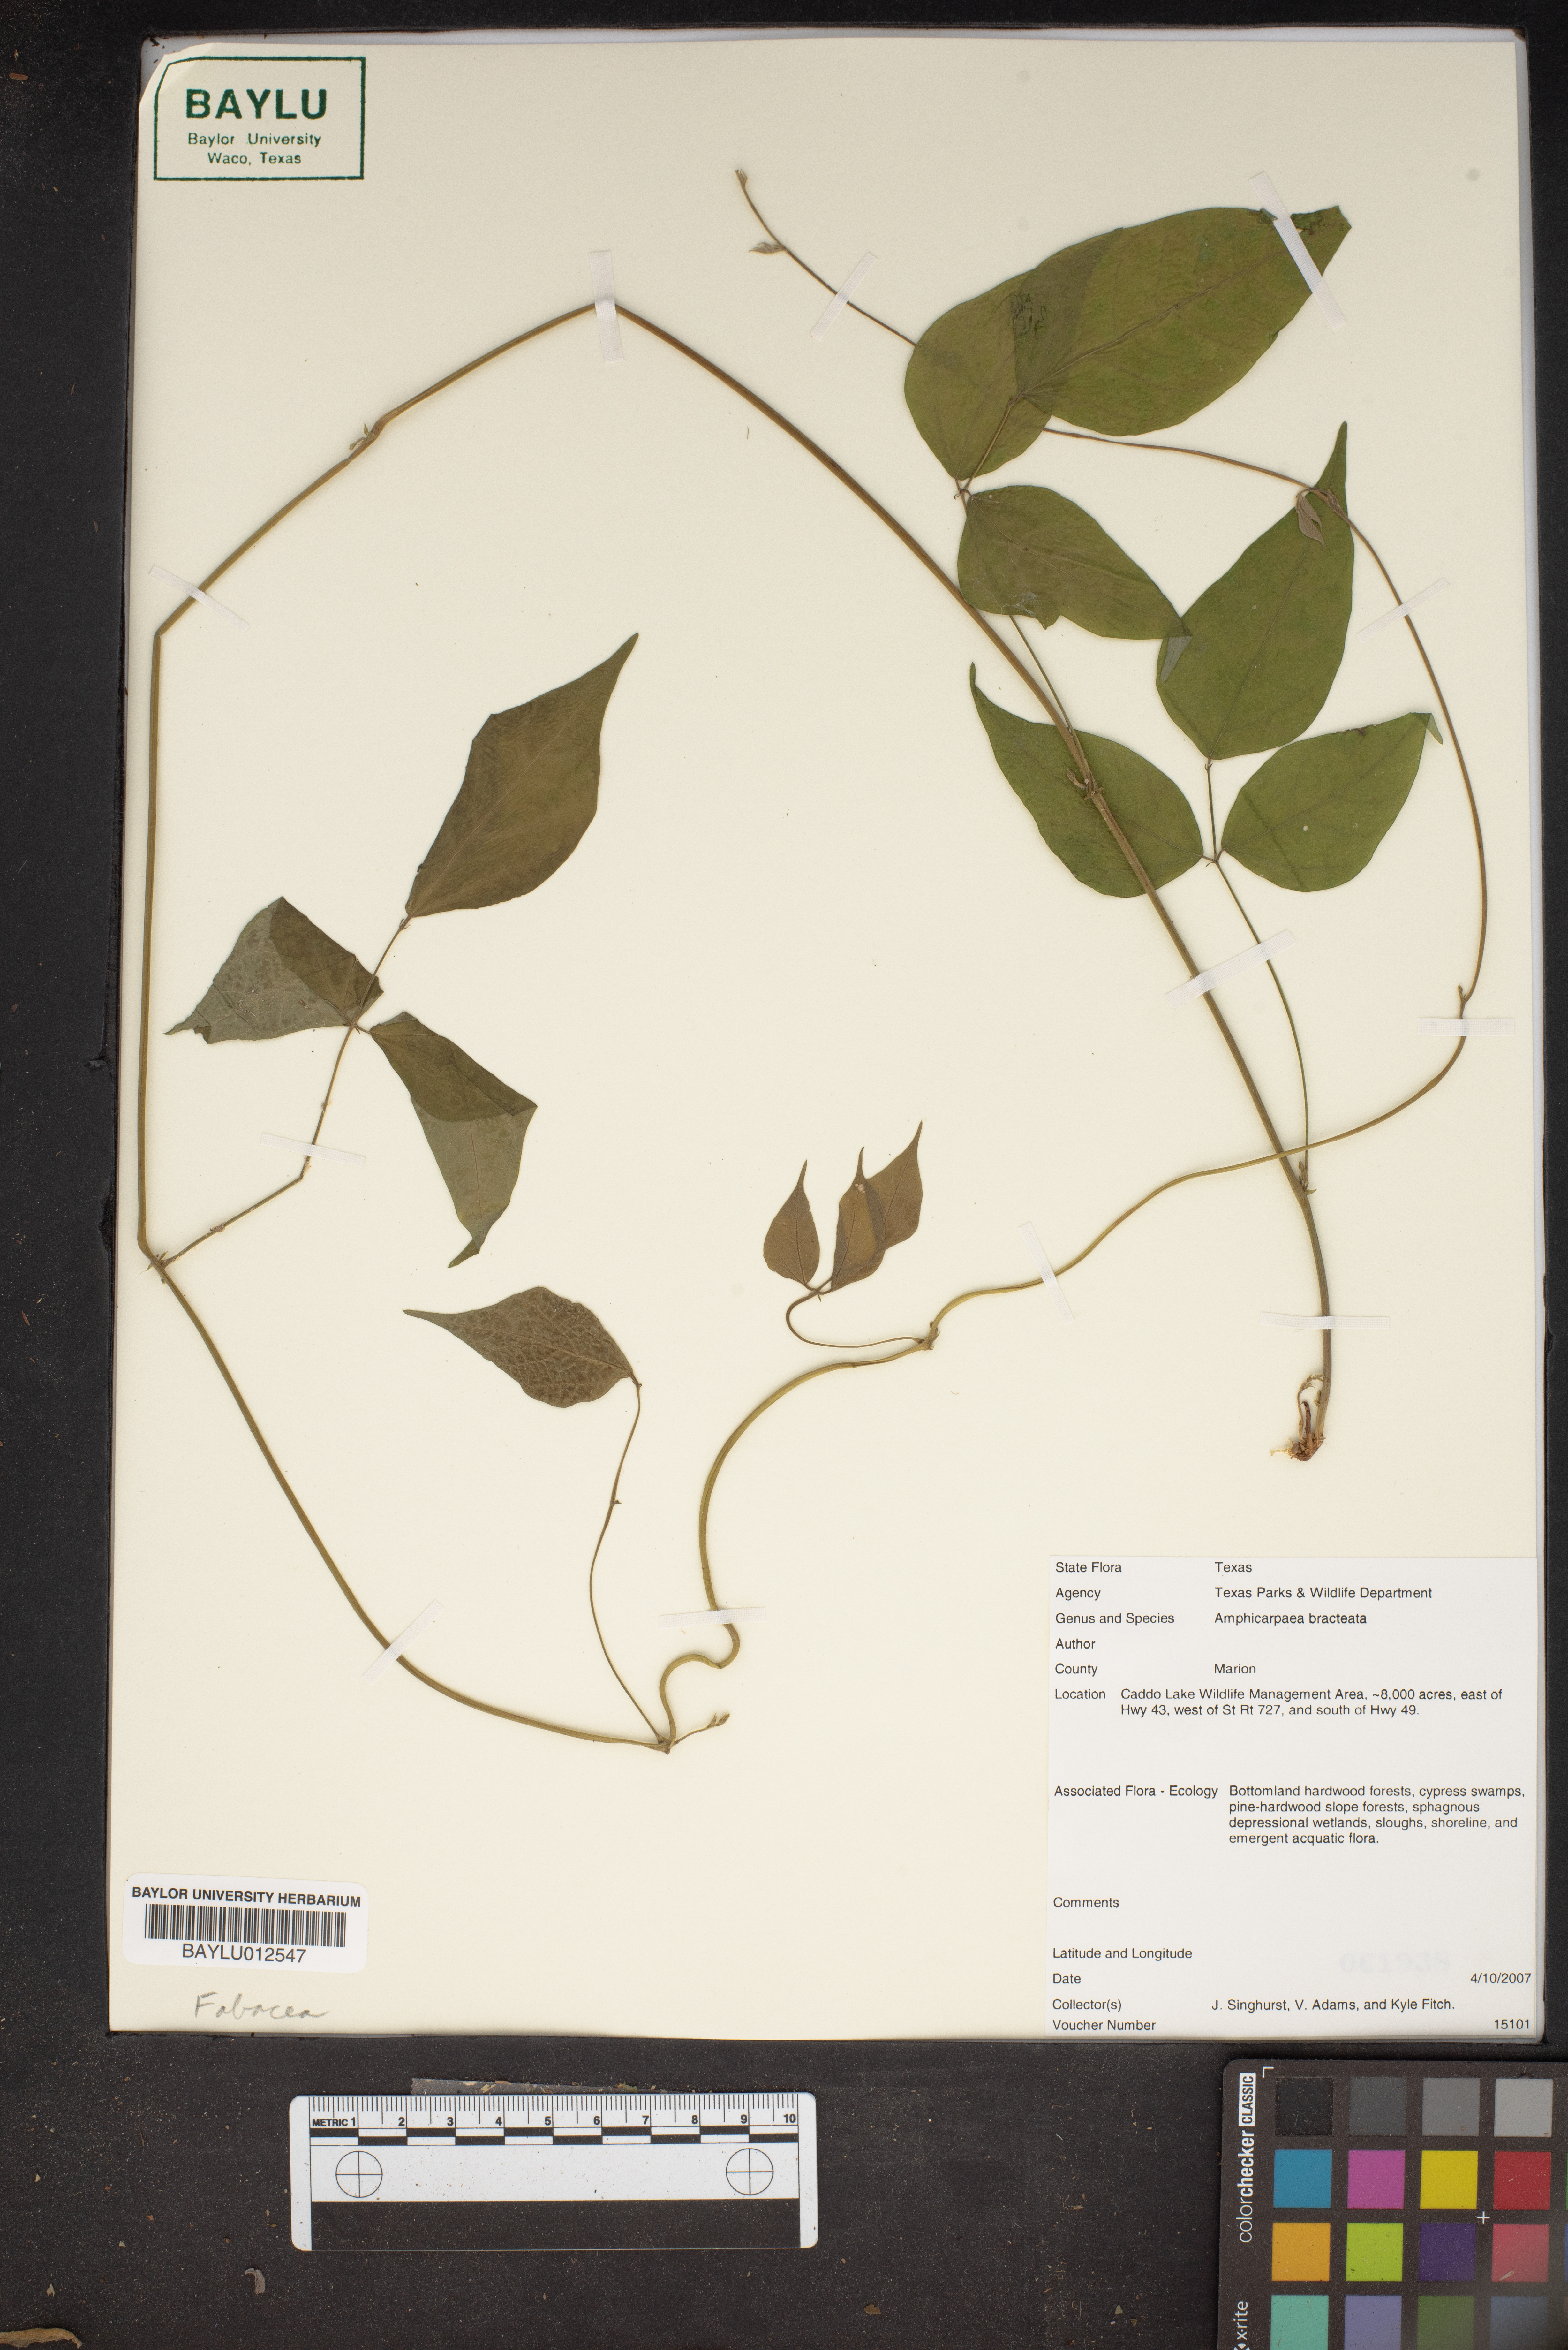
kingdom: Plantae
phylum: Tracheophyta
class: Magnoliopsida
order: Fabales
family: Fabaceae
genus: Amphicarpaea
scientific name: Amphicarpaea bracteata
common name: American hog peanut
